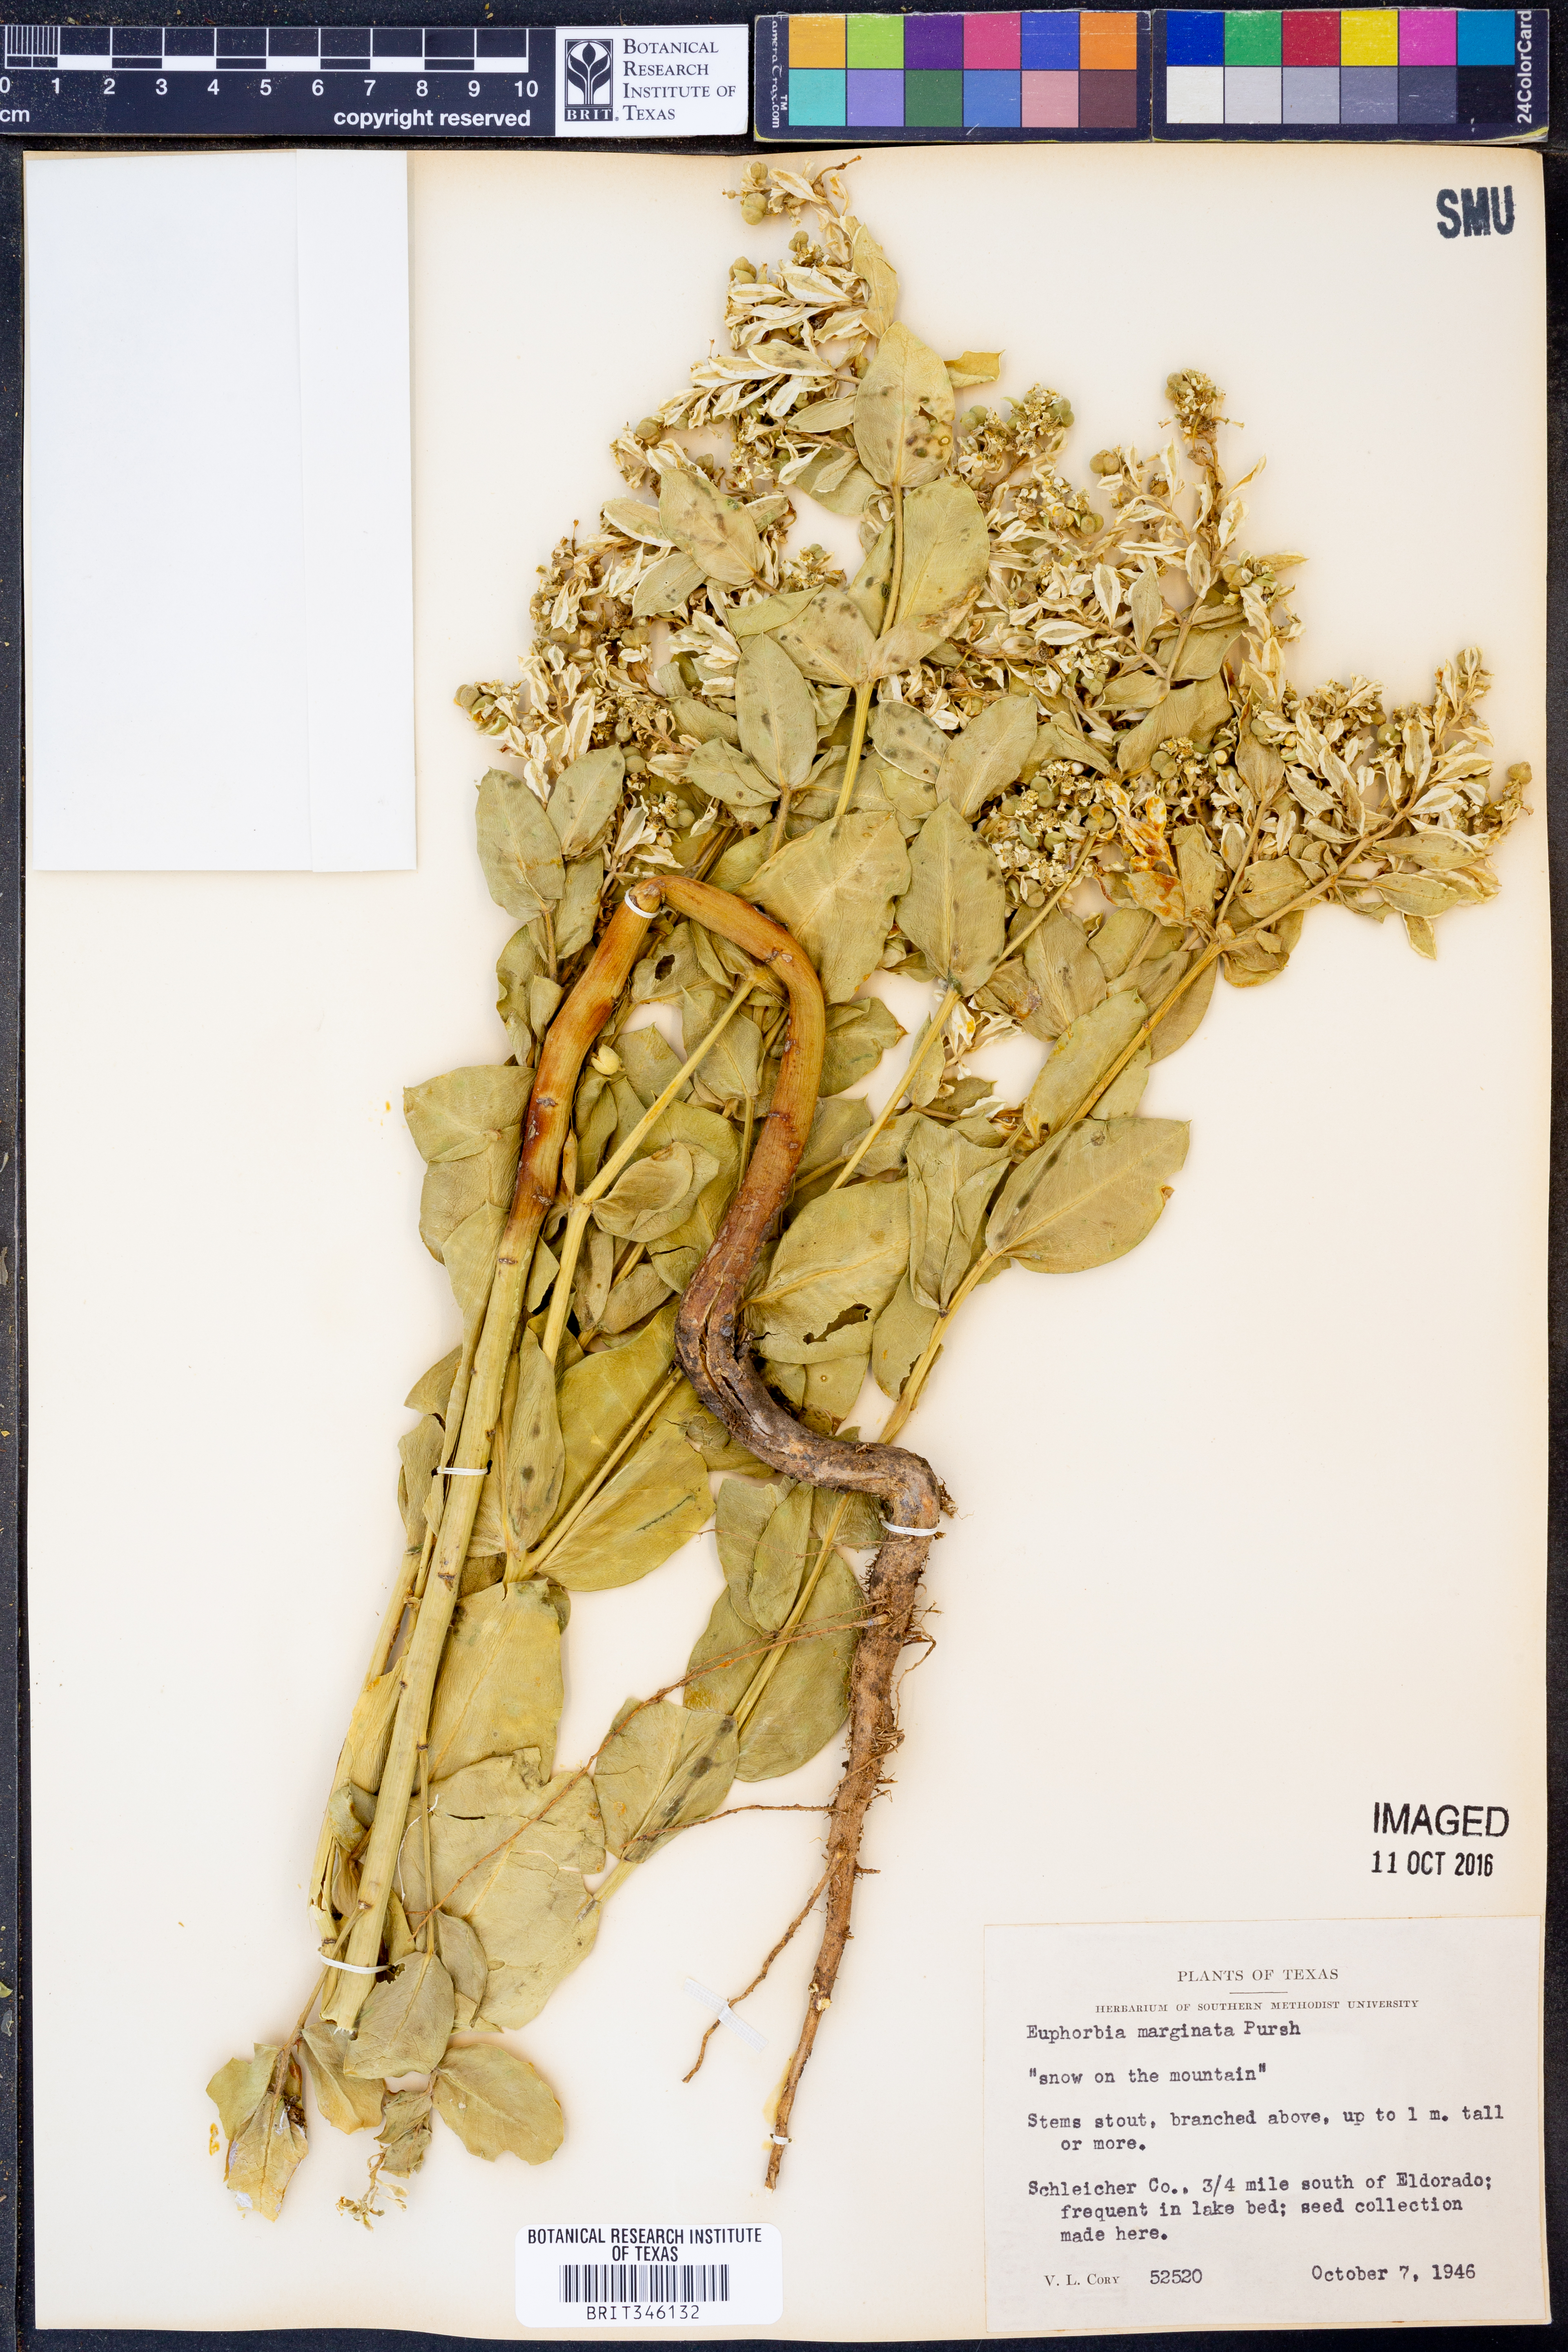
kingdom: Plantae
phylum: Tracheophyta
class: Magnoliopsida
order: Malpighiales
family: Euphorbiaceae
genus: Euphorbia
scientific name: Euphorbia marginata
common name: Ghostweed
